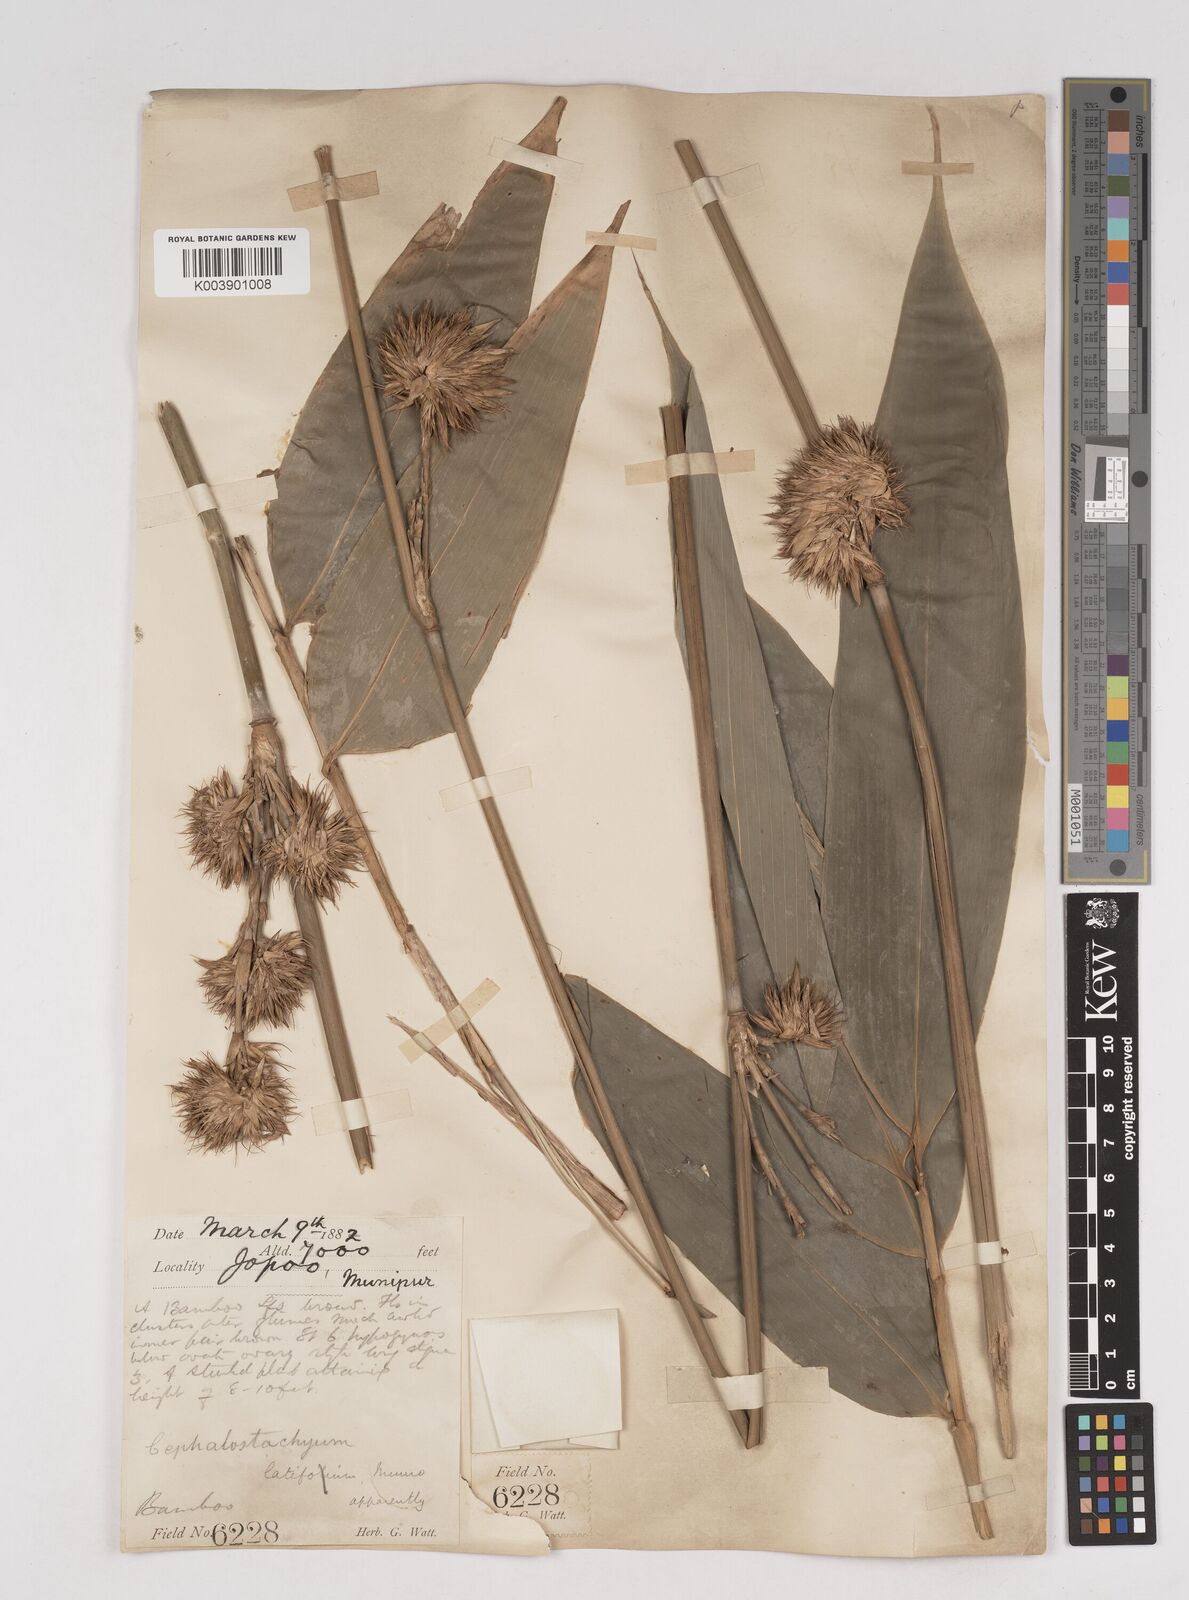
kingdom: Plantae
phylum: Tracheophyta
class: Liliopsida
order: Poales
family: Poaceae
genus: Cephalostachyum
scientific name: Cephalostachyum latifolium
